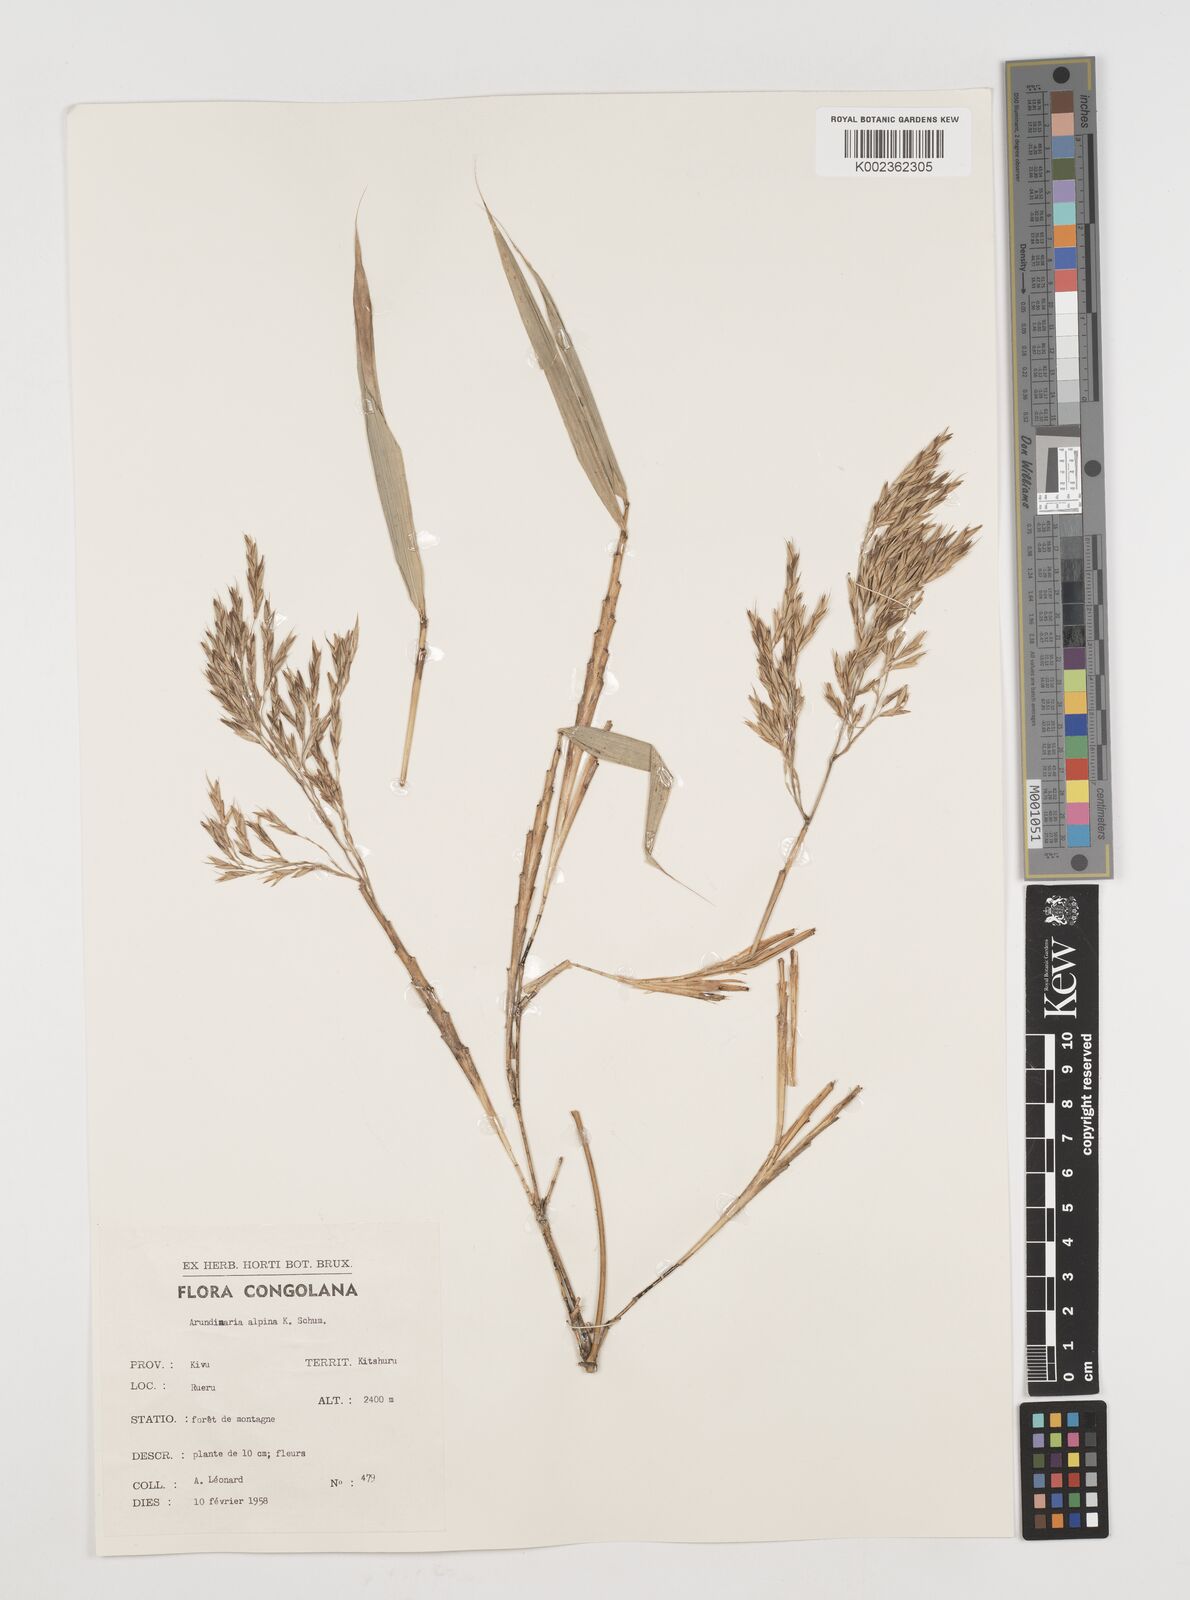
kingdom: Plantae
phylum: Tracheophyta
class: Liliopsida
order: Poales
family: Poaceae
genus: Oldeania
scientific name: Oldeania alpina
